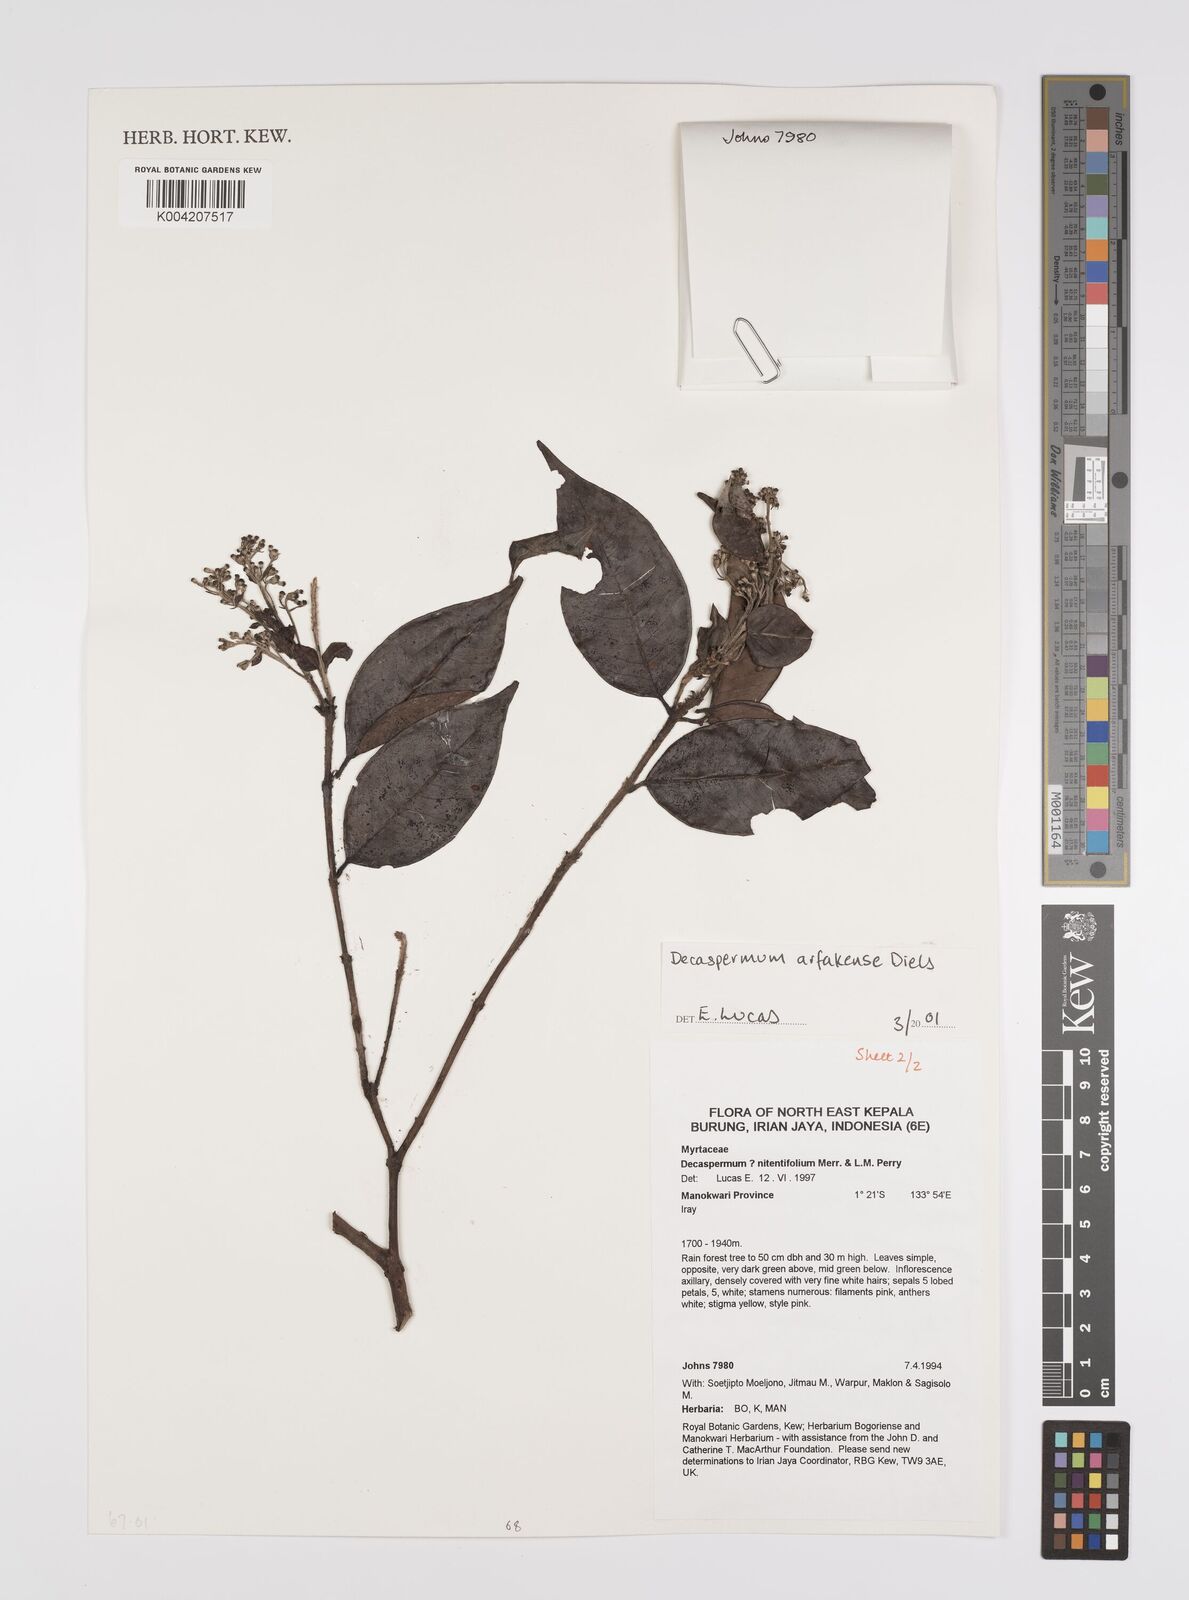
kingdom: Plantae
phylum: Tracheophyta
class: Magnoliopsida
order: Myrtales
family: Myrtaceae
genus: Decaspermum
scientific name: Decaspermum arfakense
